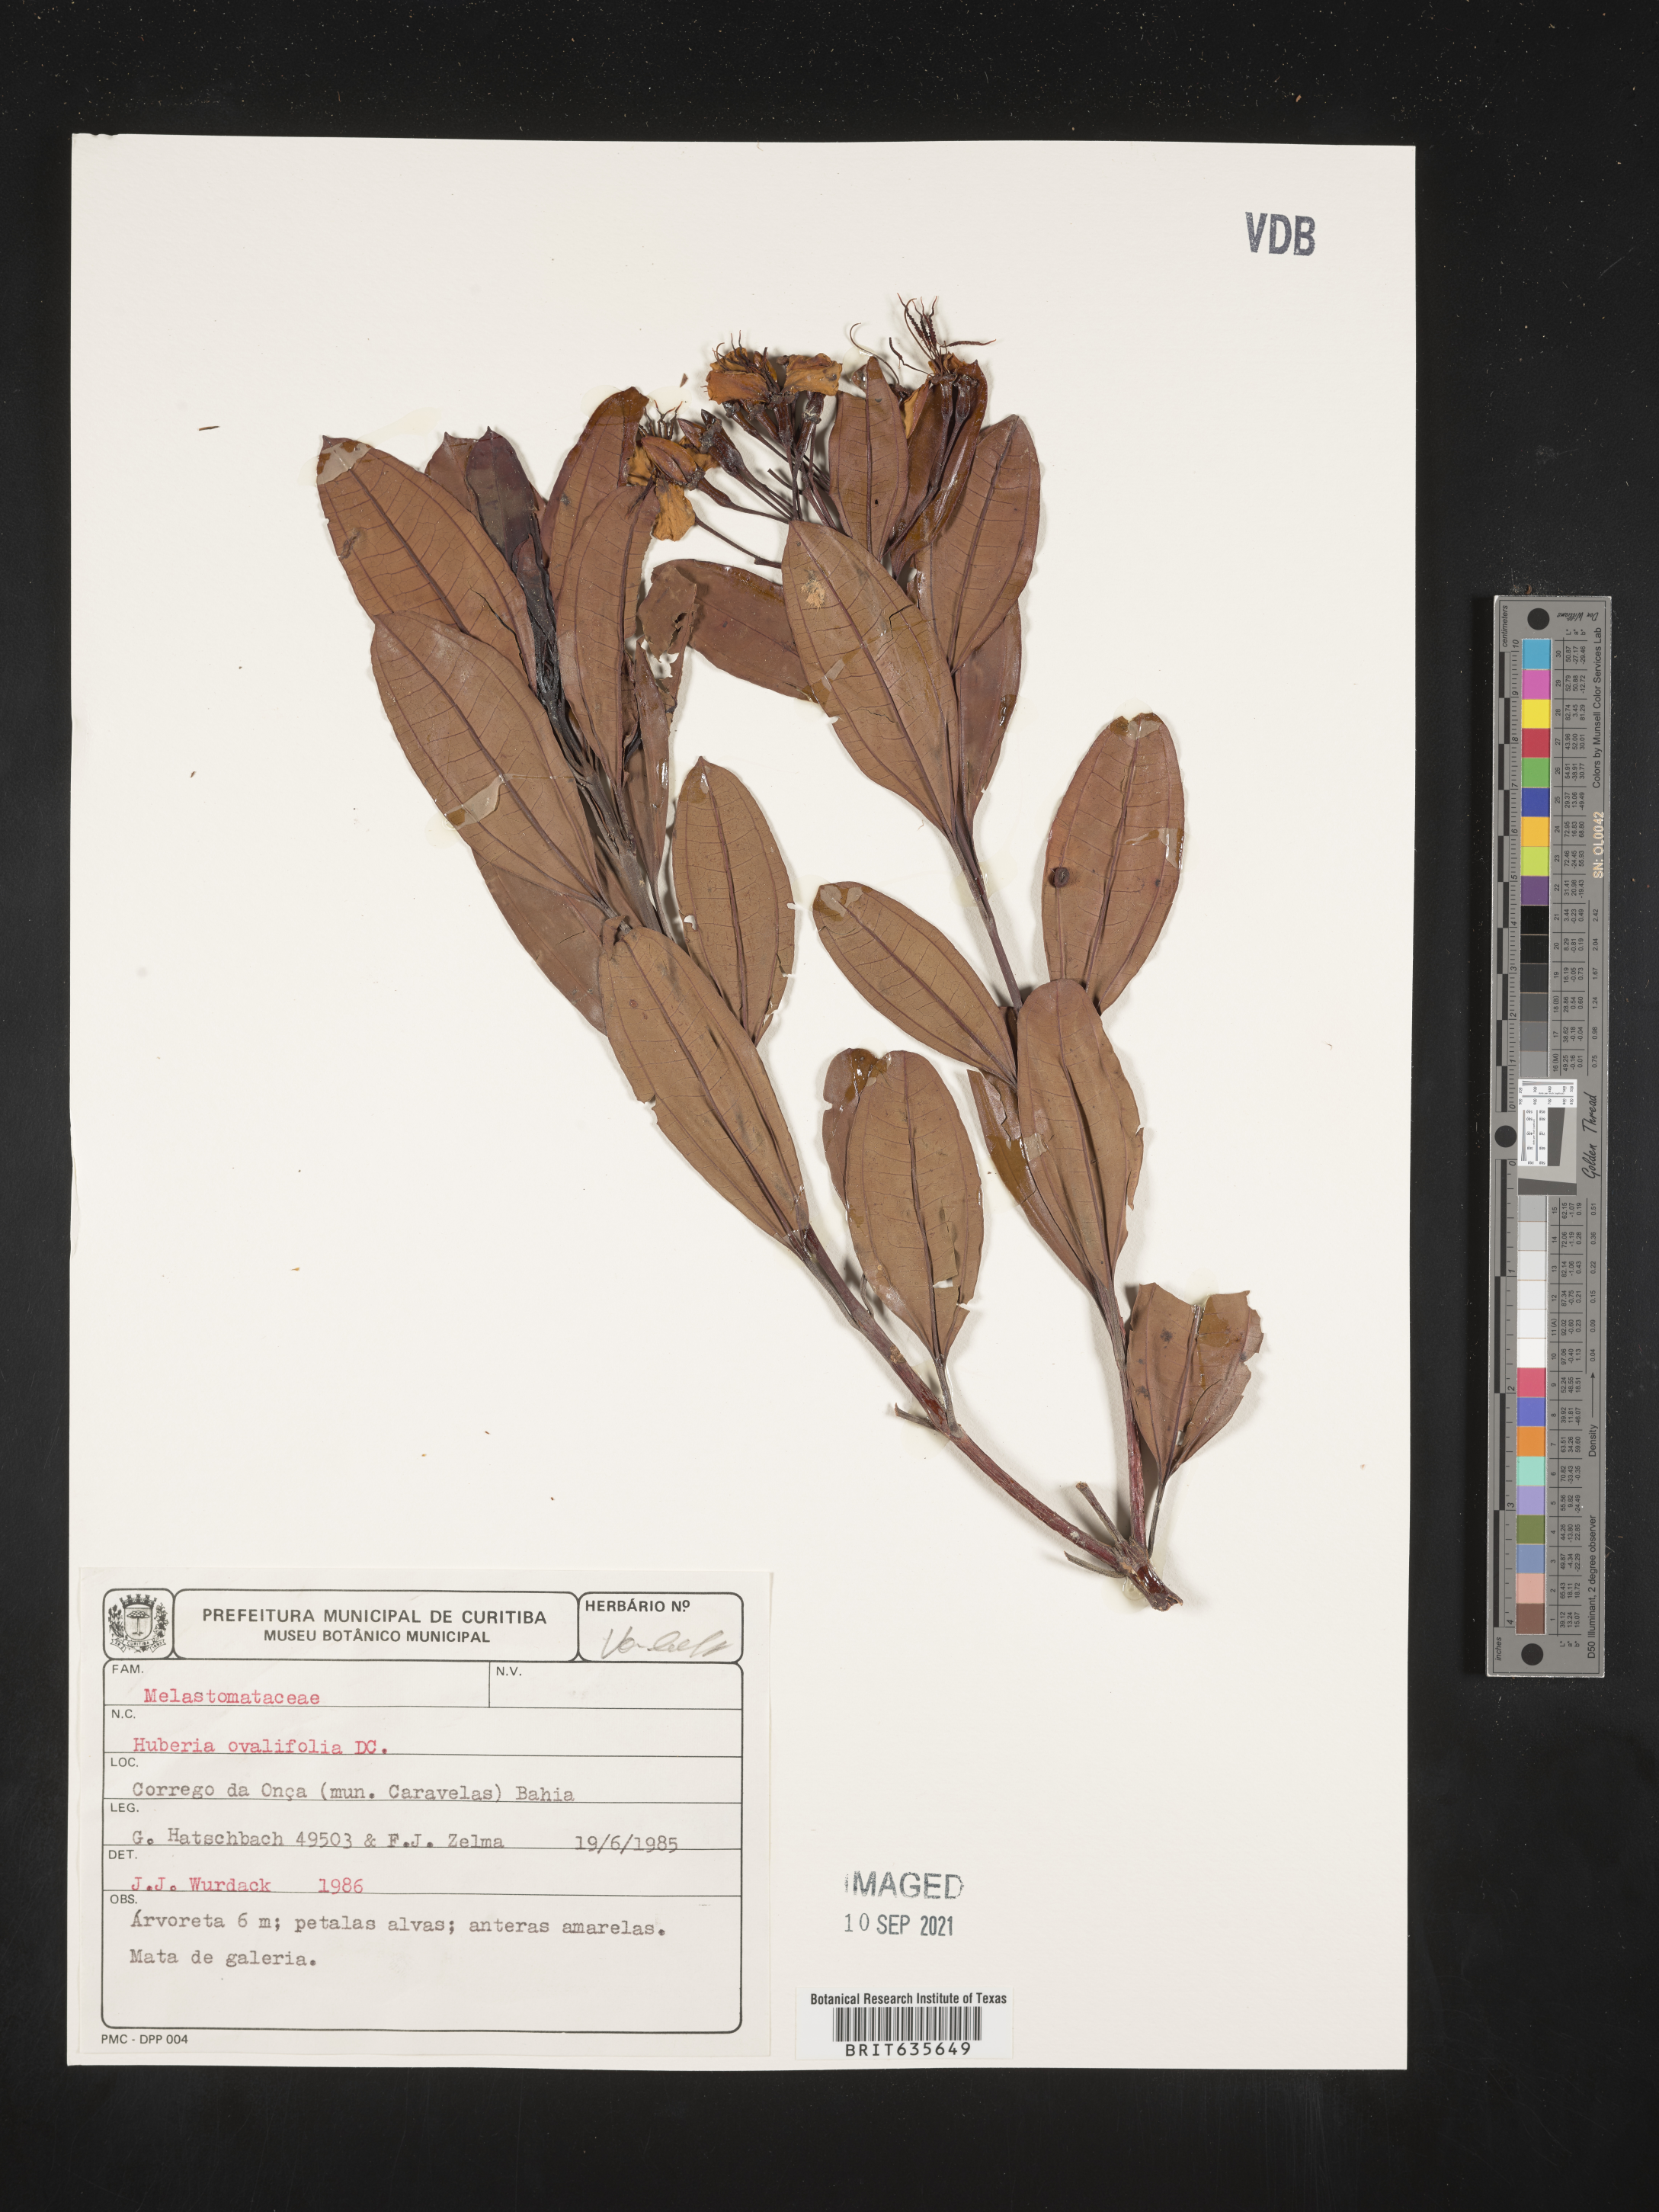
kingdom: Plantae
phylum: Tracheophyta
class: Magnoliopsida
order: Myrtales
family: Melastomataceae
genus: Huberia
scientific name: Huberia
